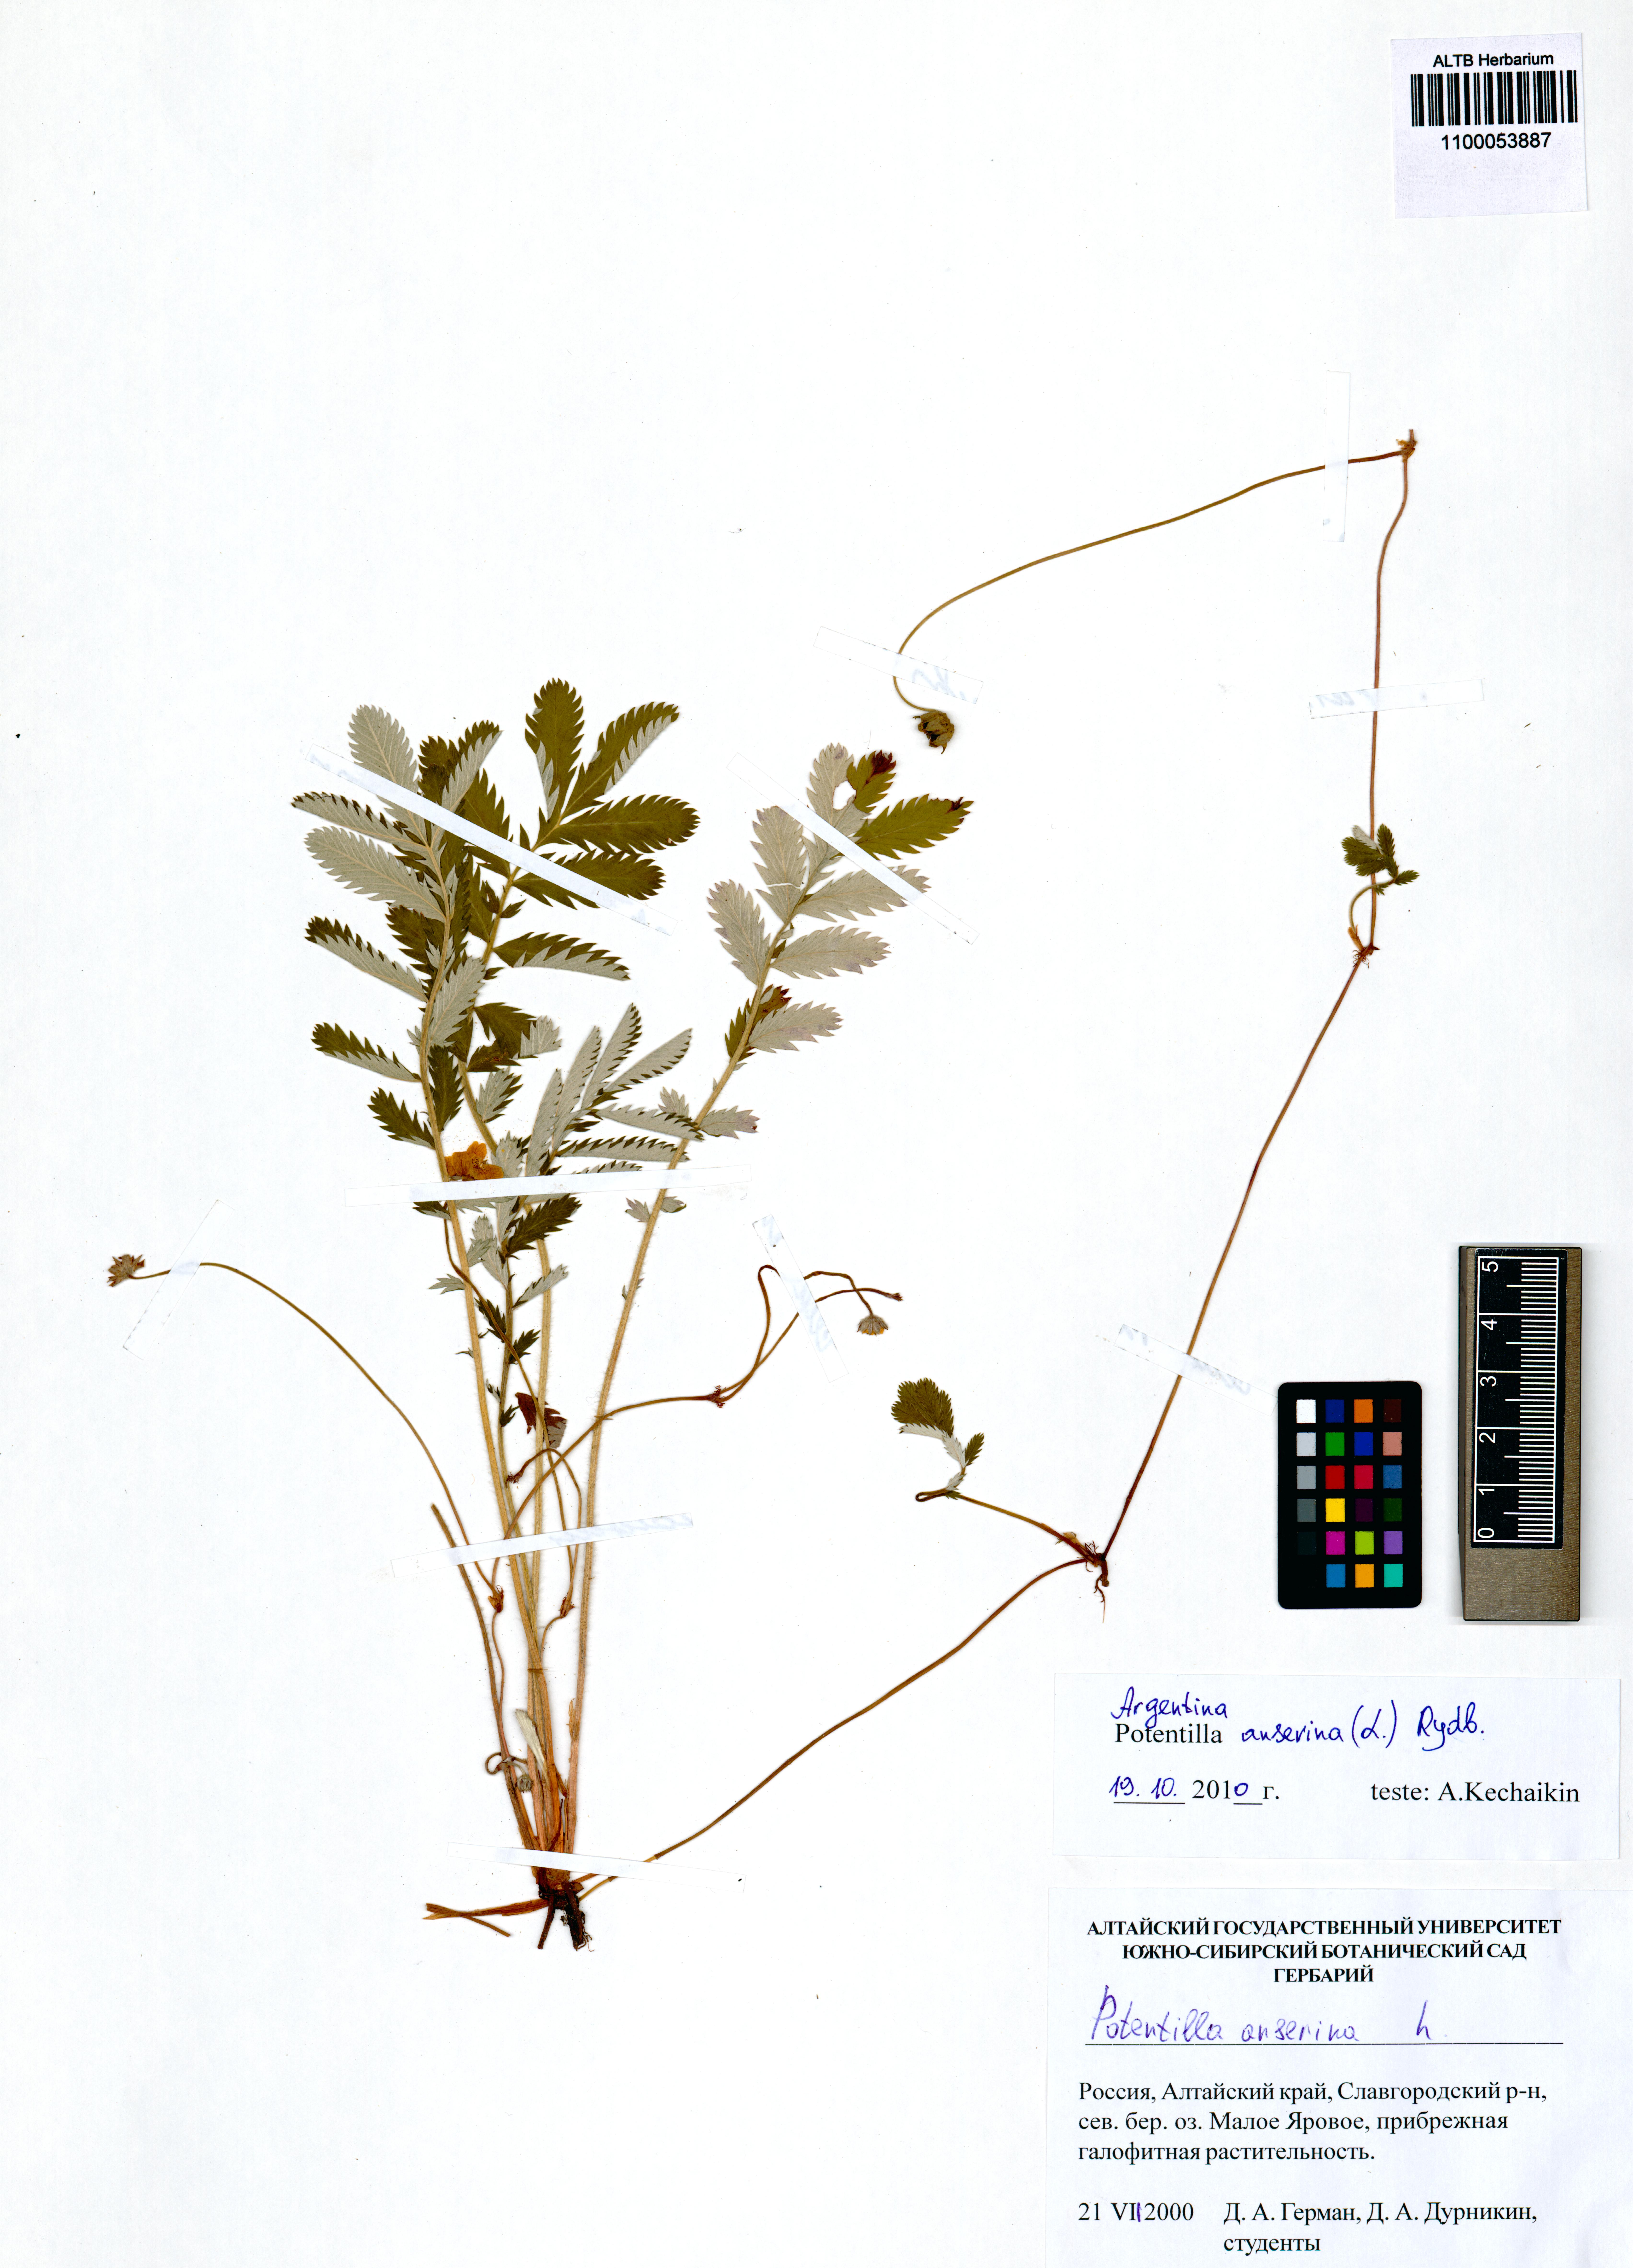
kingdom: Plantae
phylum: Tracheophyta
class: Magnoliopsida
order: Rosales
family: Rosaceae
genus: Argentina
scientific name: Argentina anserina
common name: Common silverweed
